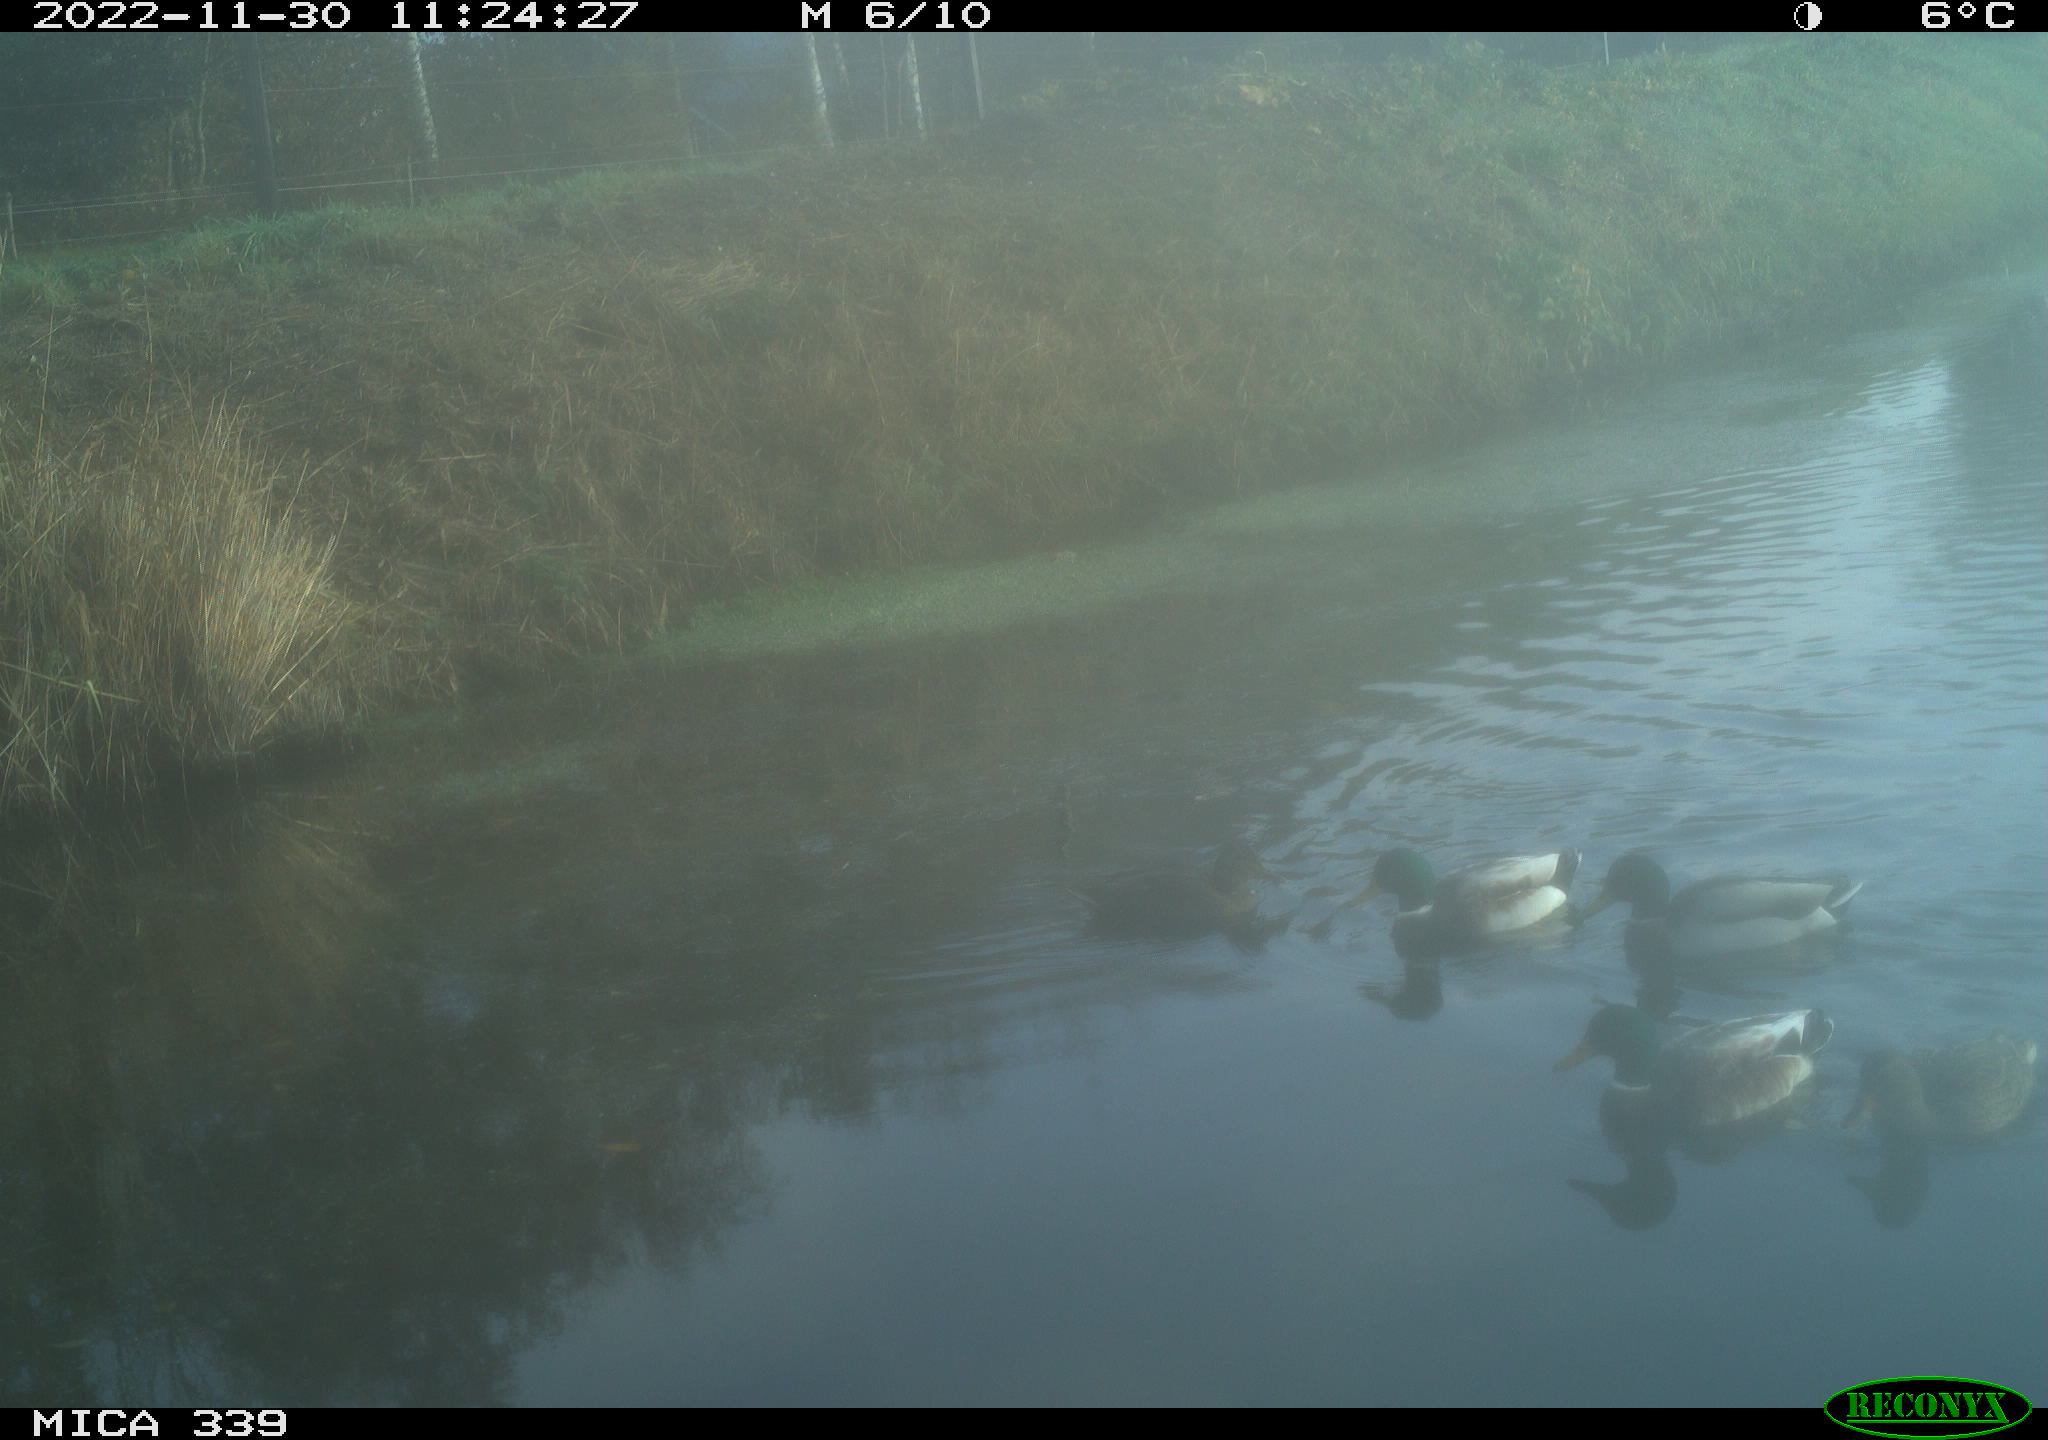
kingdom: Animalia
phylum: Chordata
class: Aves
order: Anseriformes
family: Anatidae
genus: Anas
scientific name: Anas
